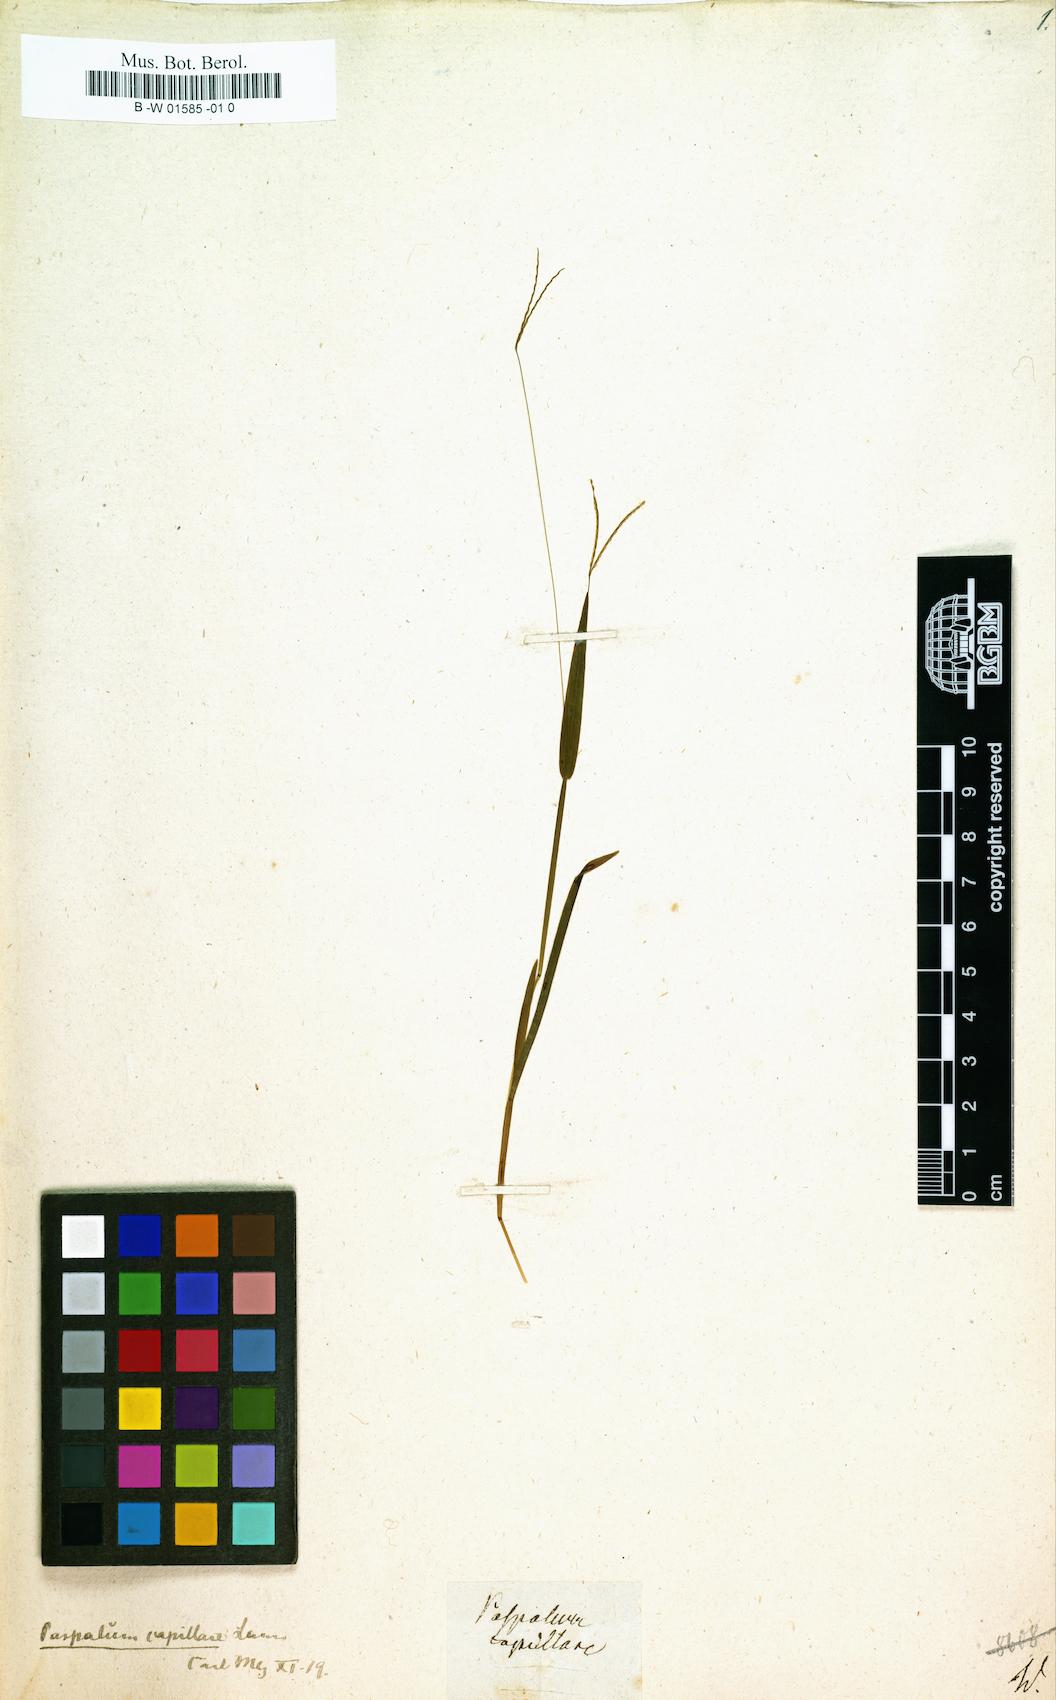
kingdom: Plantae
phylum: Tracheophyta
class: Liliopsida
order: Poales
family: Poaceae
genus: Paspalus
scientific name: Paspalus
